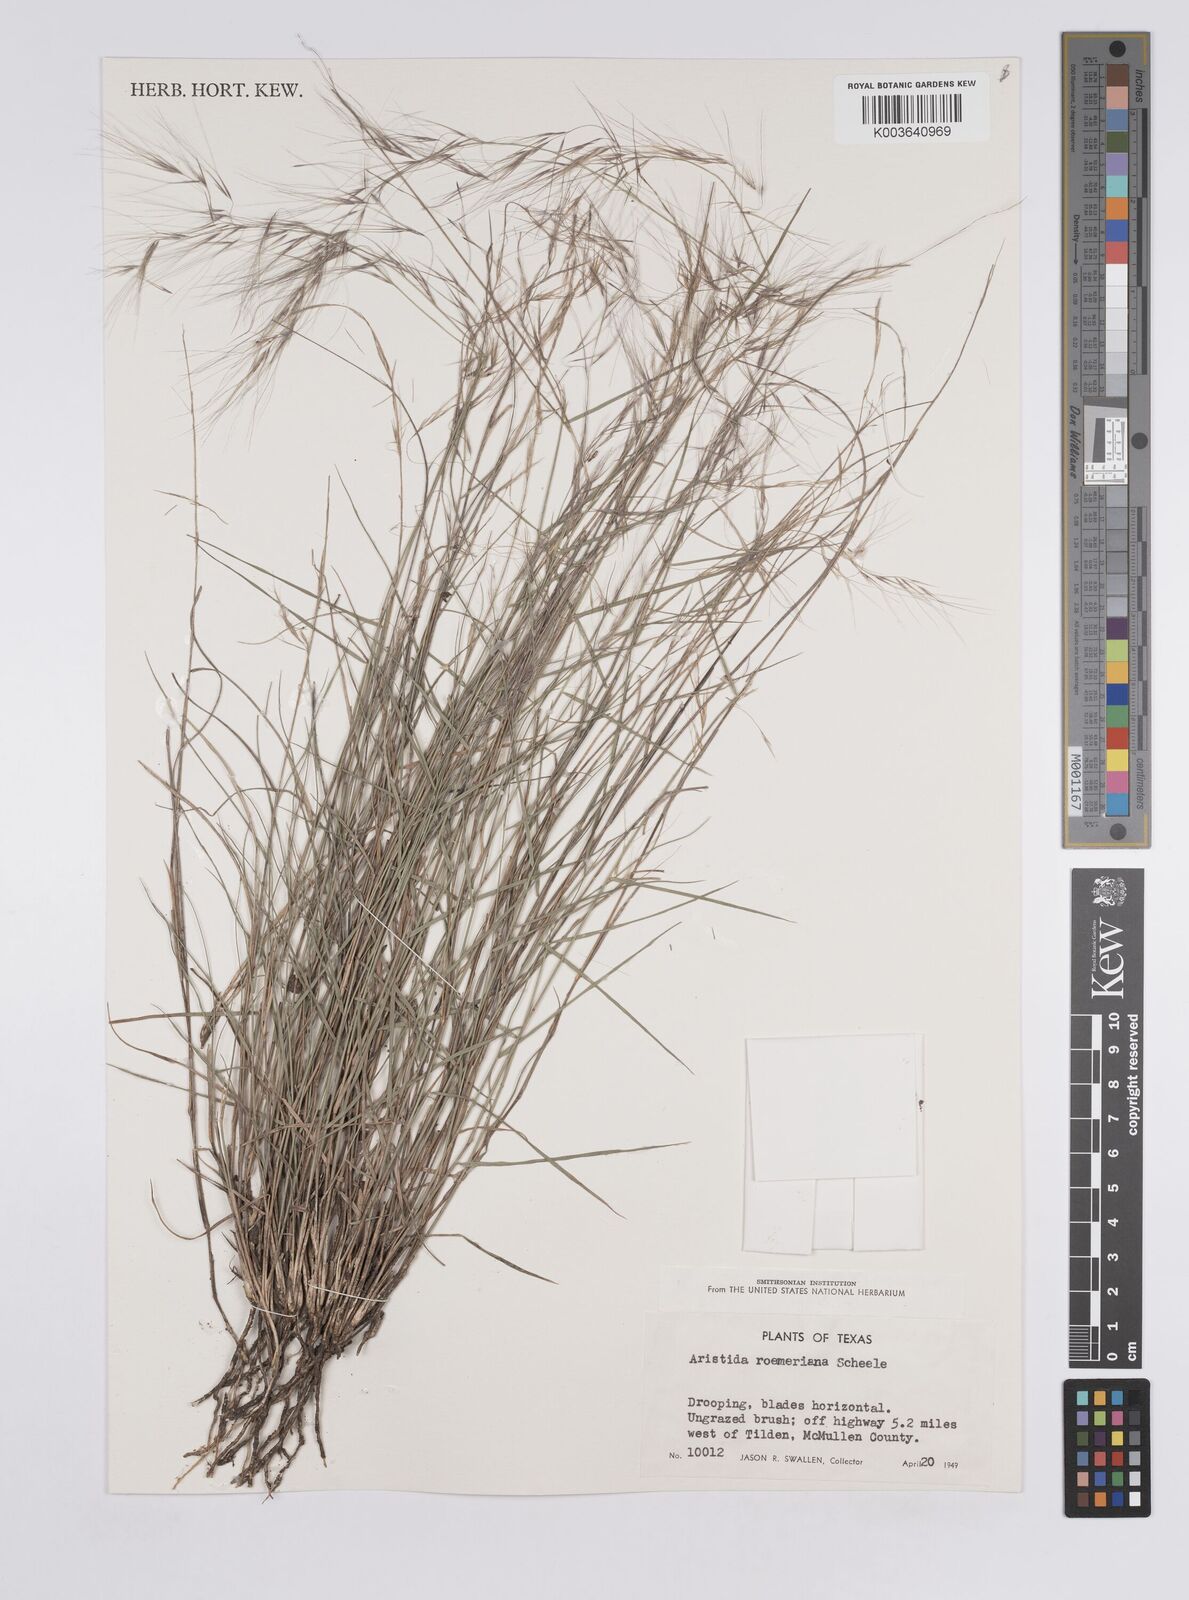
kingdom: Plantae
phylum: Tracheophyta
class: Liliopsida
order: Poales
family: Poaceae
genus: Aristida
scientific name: Aristida purpurea
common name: Purple threeawn
